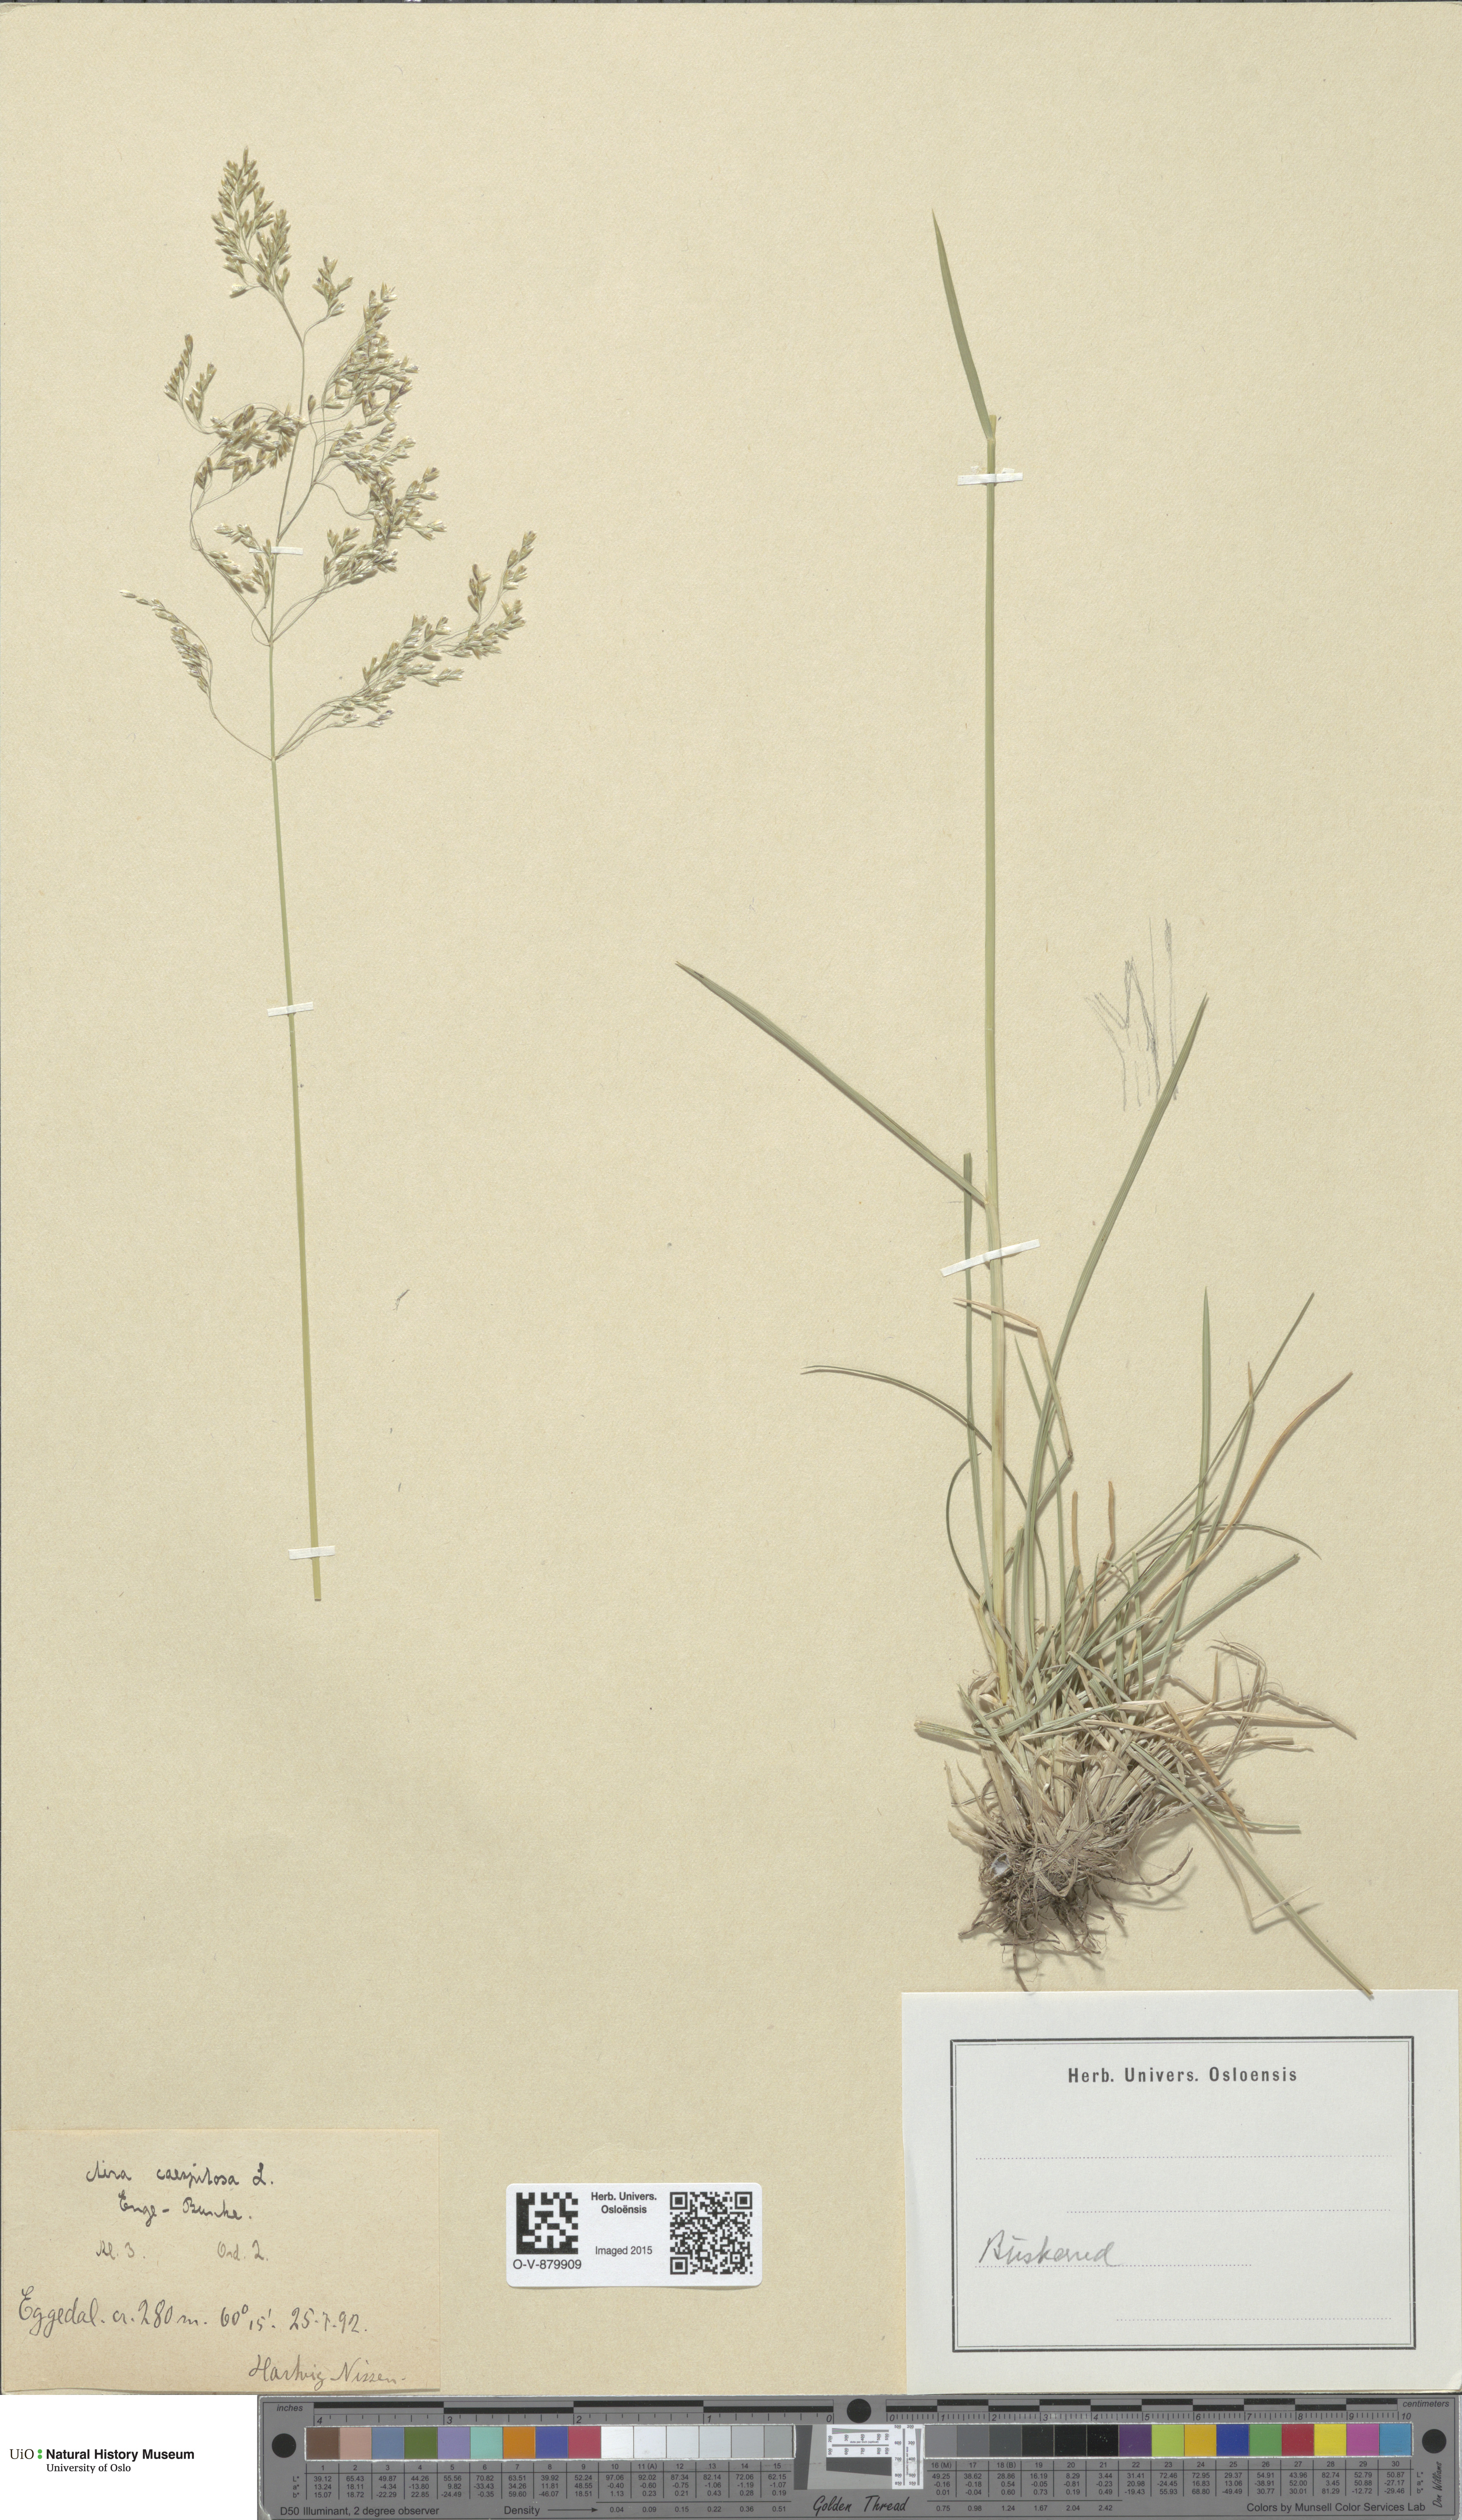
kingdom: Plantae
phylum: Tracheophyta
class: Liliopsida
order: Poales
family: Poaceae
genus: Deschampsia
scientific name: Deschampsia cespitosa
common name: Tufted hair-grass
